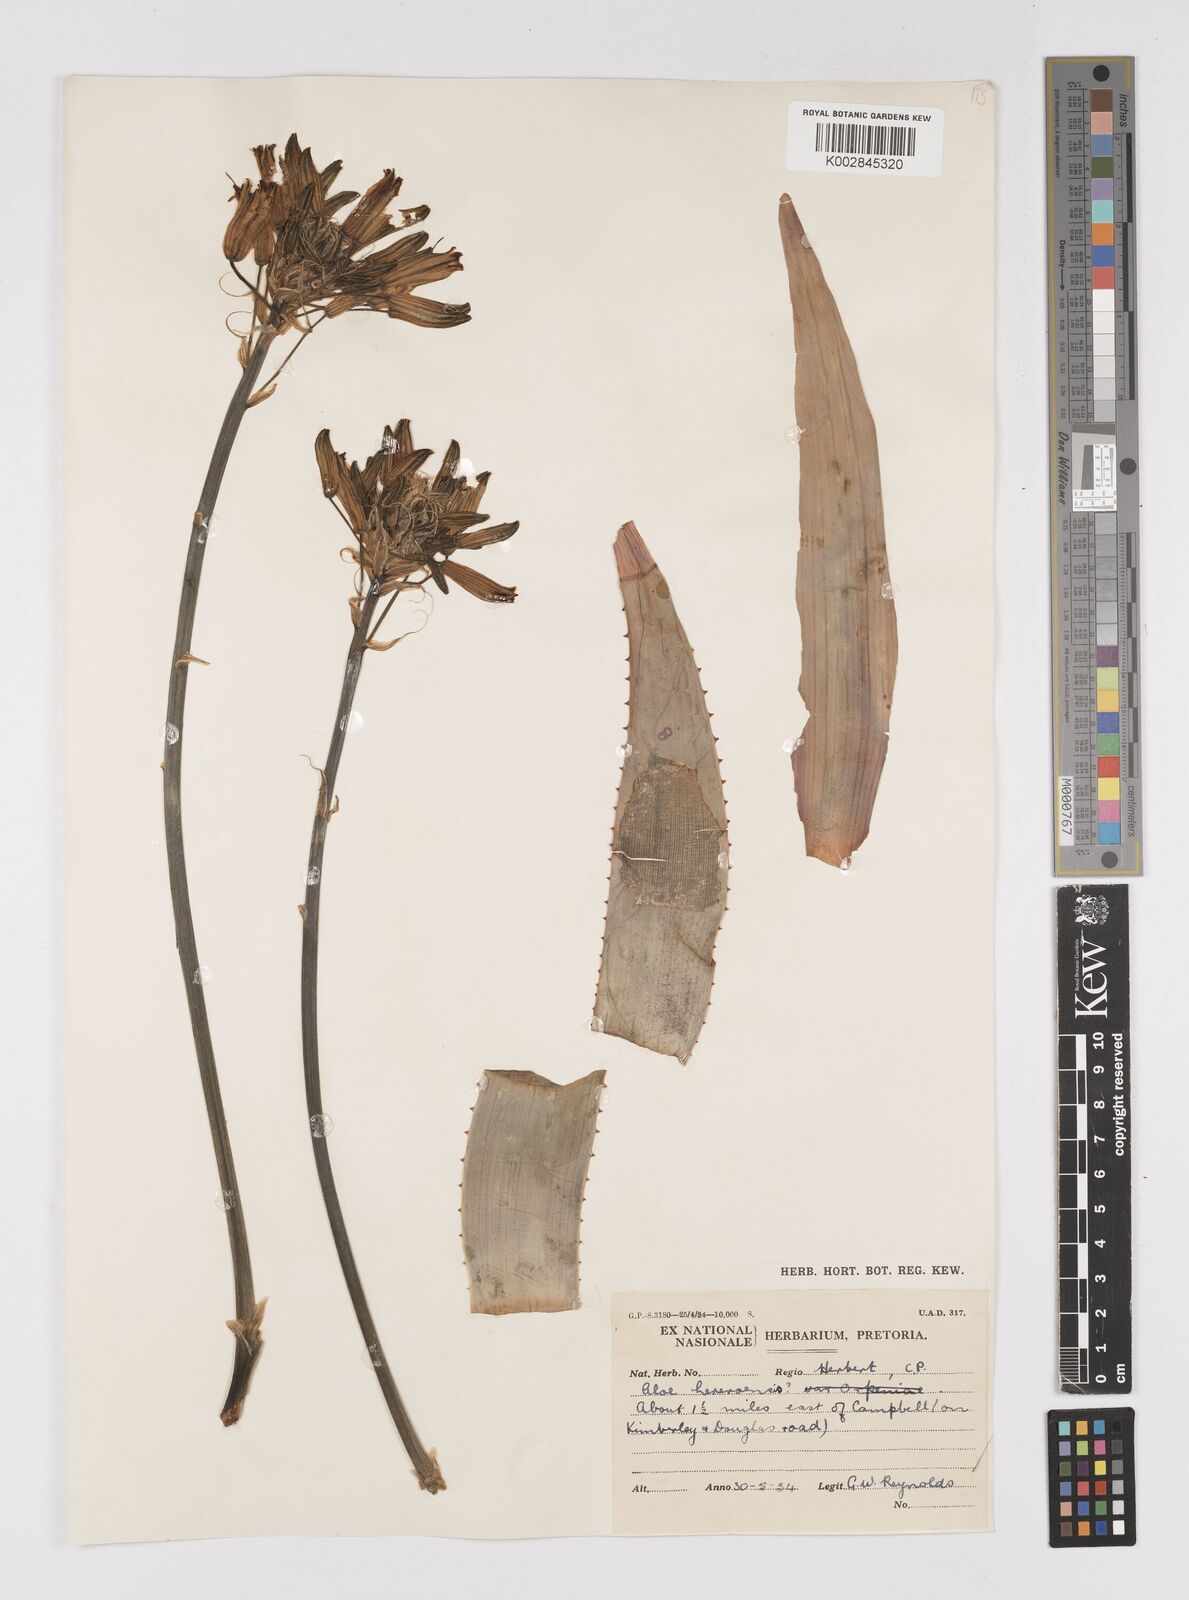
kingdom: Plantae
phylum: Tracheophyta
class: Liliopsida
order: Asparagales
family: Asphodelaceae
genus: Aloe
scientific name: Aloe hereroensis
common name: Herero aloe
